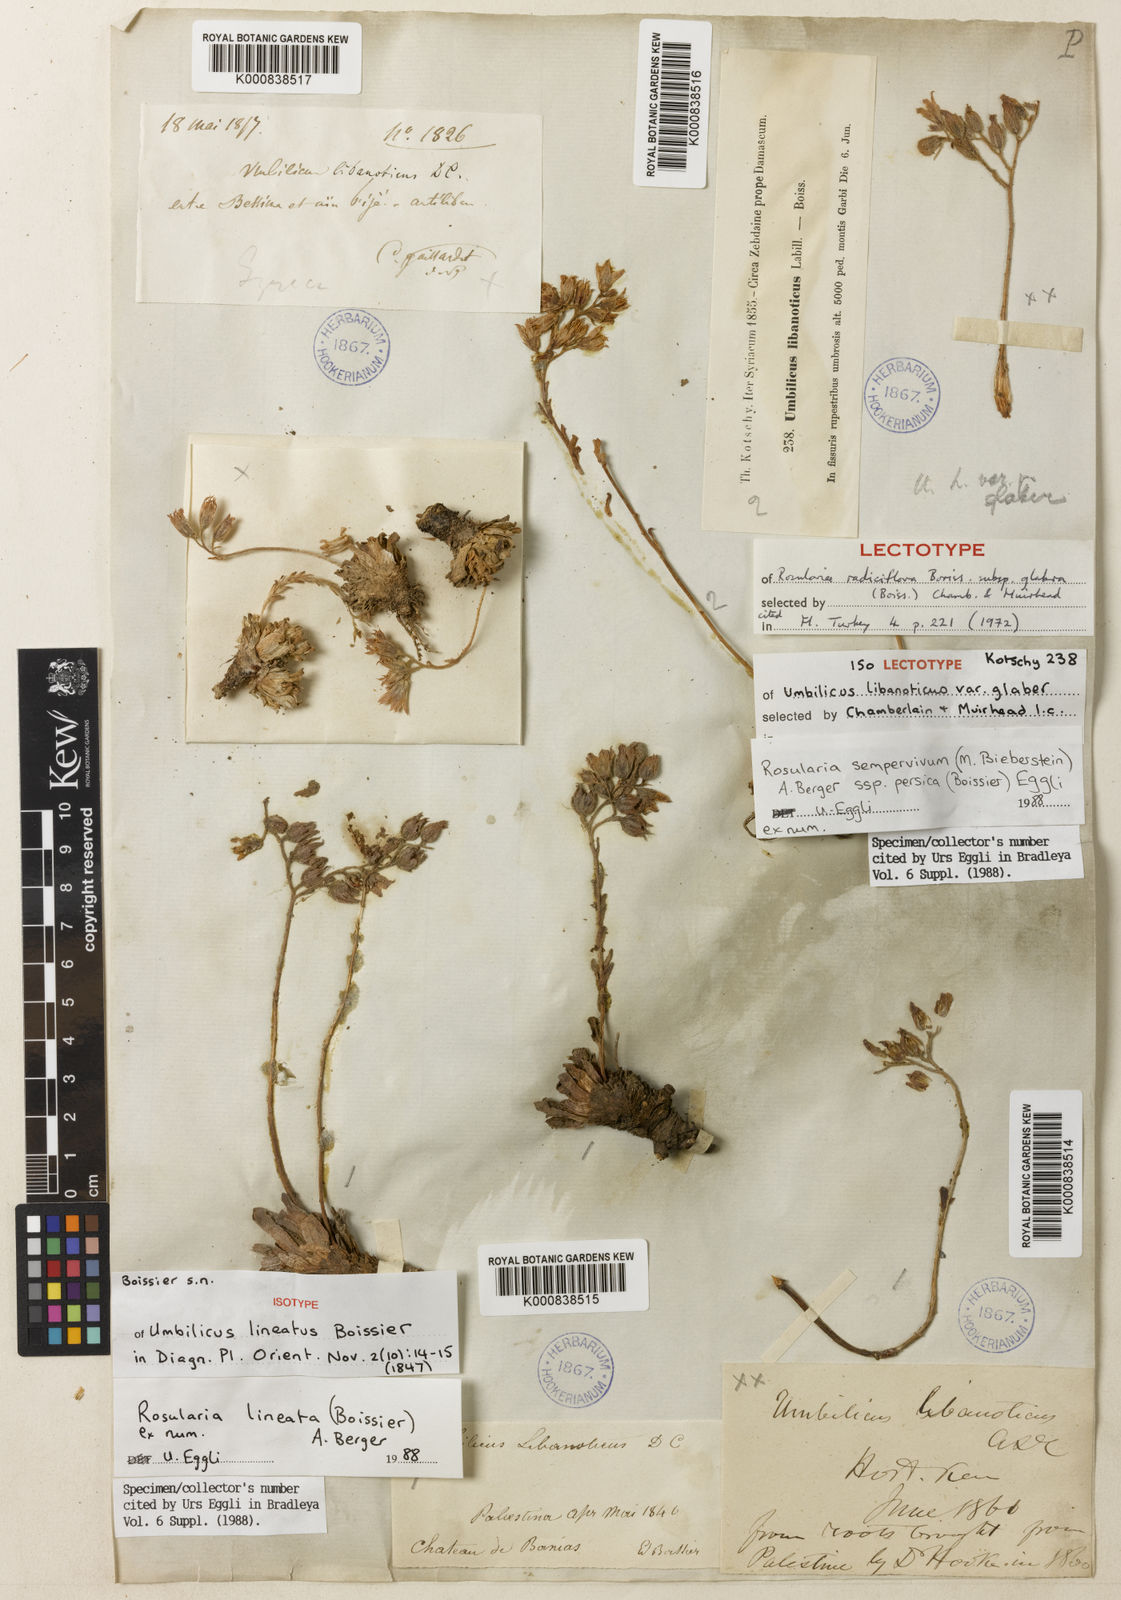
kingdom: Plantae
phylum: Tracheophyta
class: Magnoliopsida
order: Saxifragales
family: Crassulaceae
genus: Rosularia
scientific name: Rosularia sempervivum
